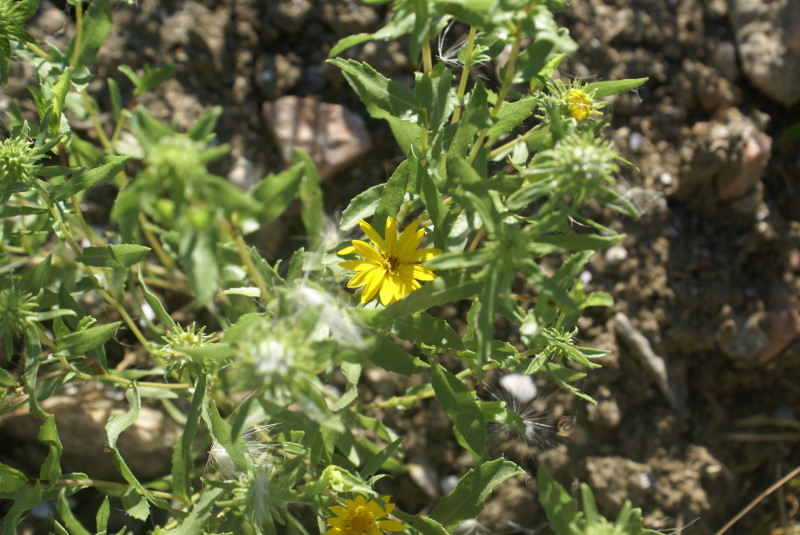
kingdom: Plantae
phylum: Tracheophyta
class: Magnoliopsida
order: Asterales
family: Asteraceae
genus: Grindelia
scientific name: Grindelia squarrosa
